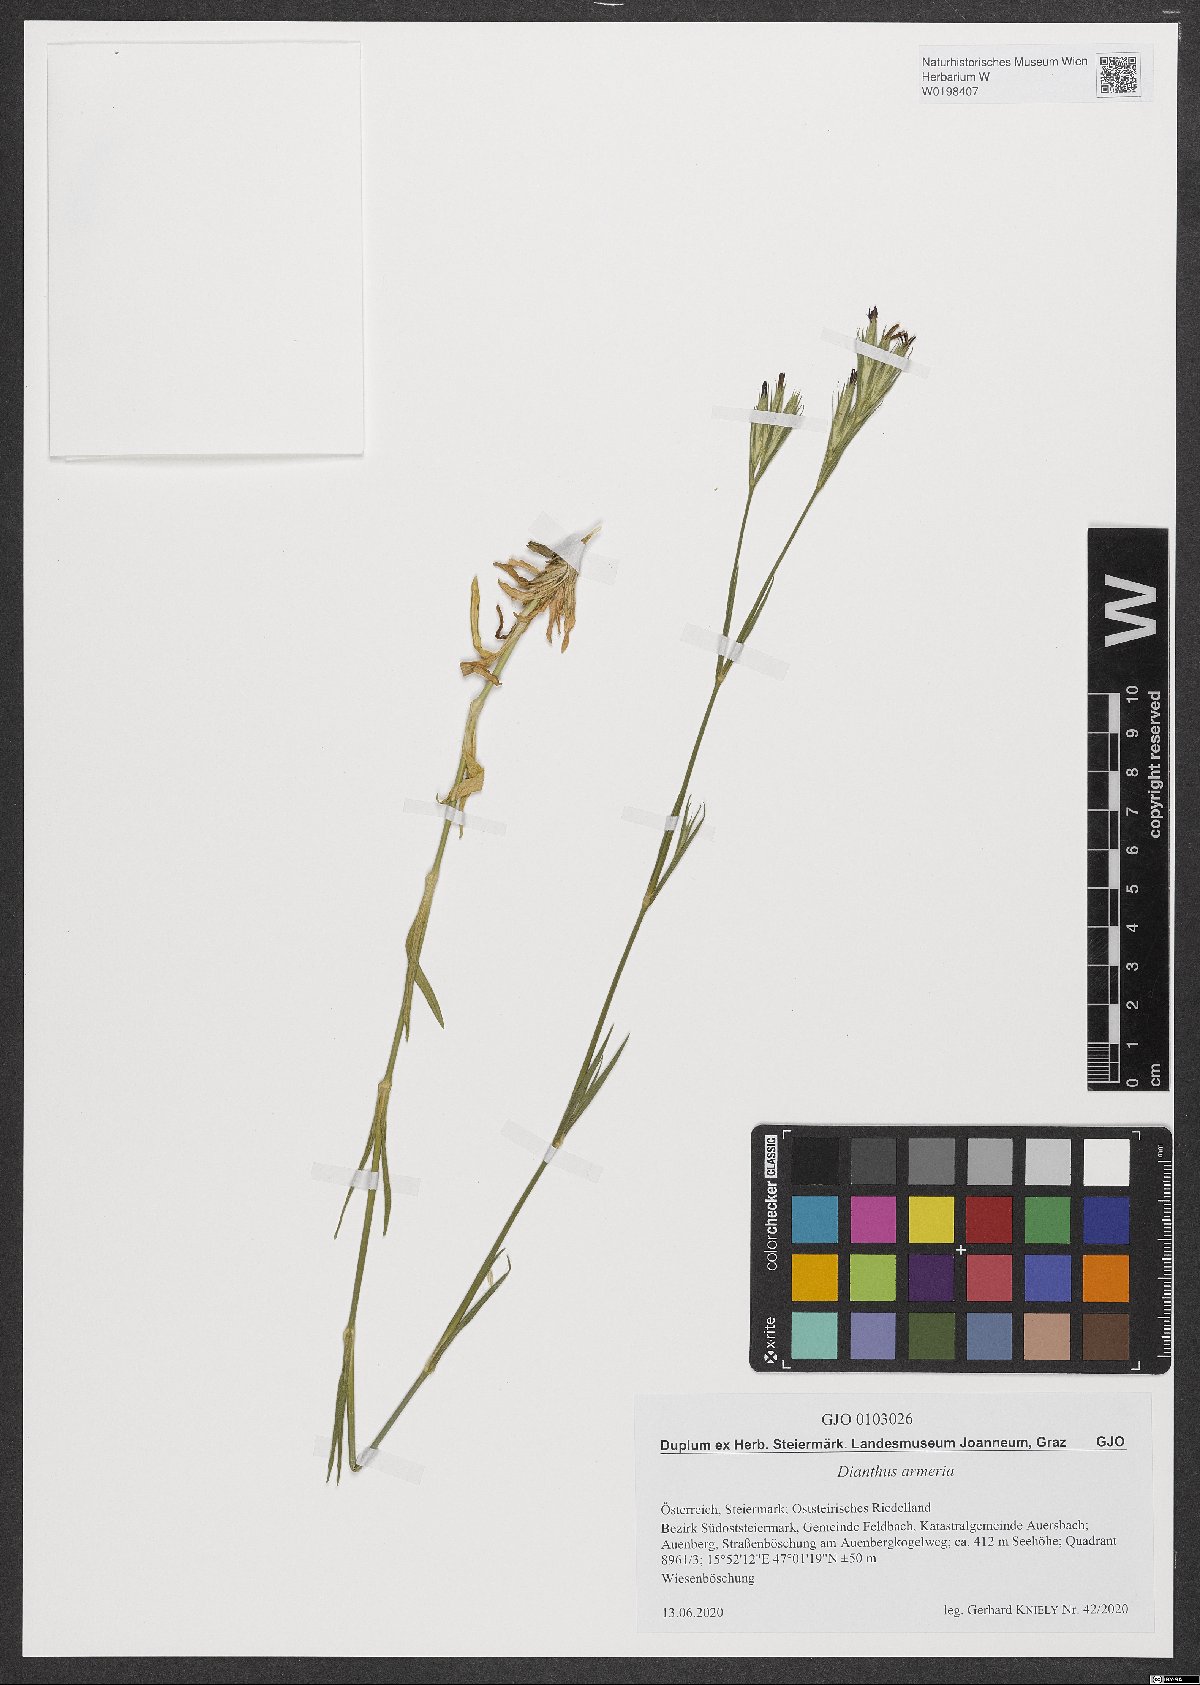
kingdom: Plantae
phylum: Tracheophyta
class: Magnoliopsida
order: Caryophyllales
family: Caryophyllaceae
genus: Dianthus
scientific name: Dianthus armeria
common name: Deptford pink
